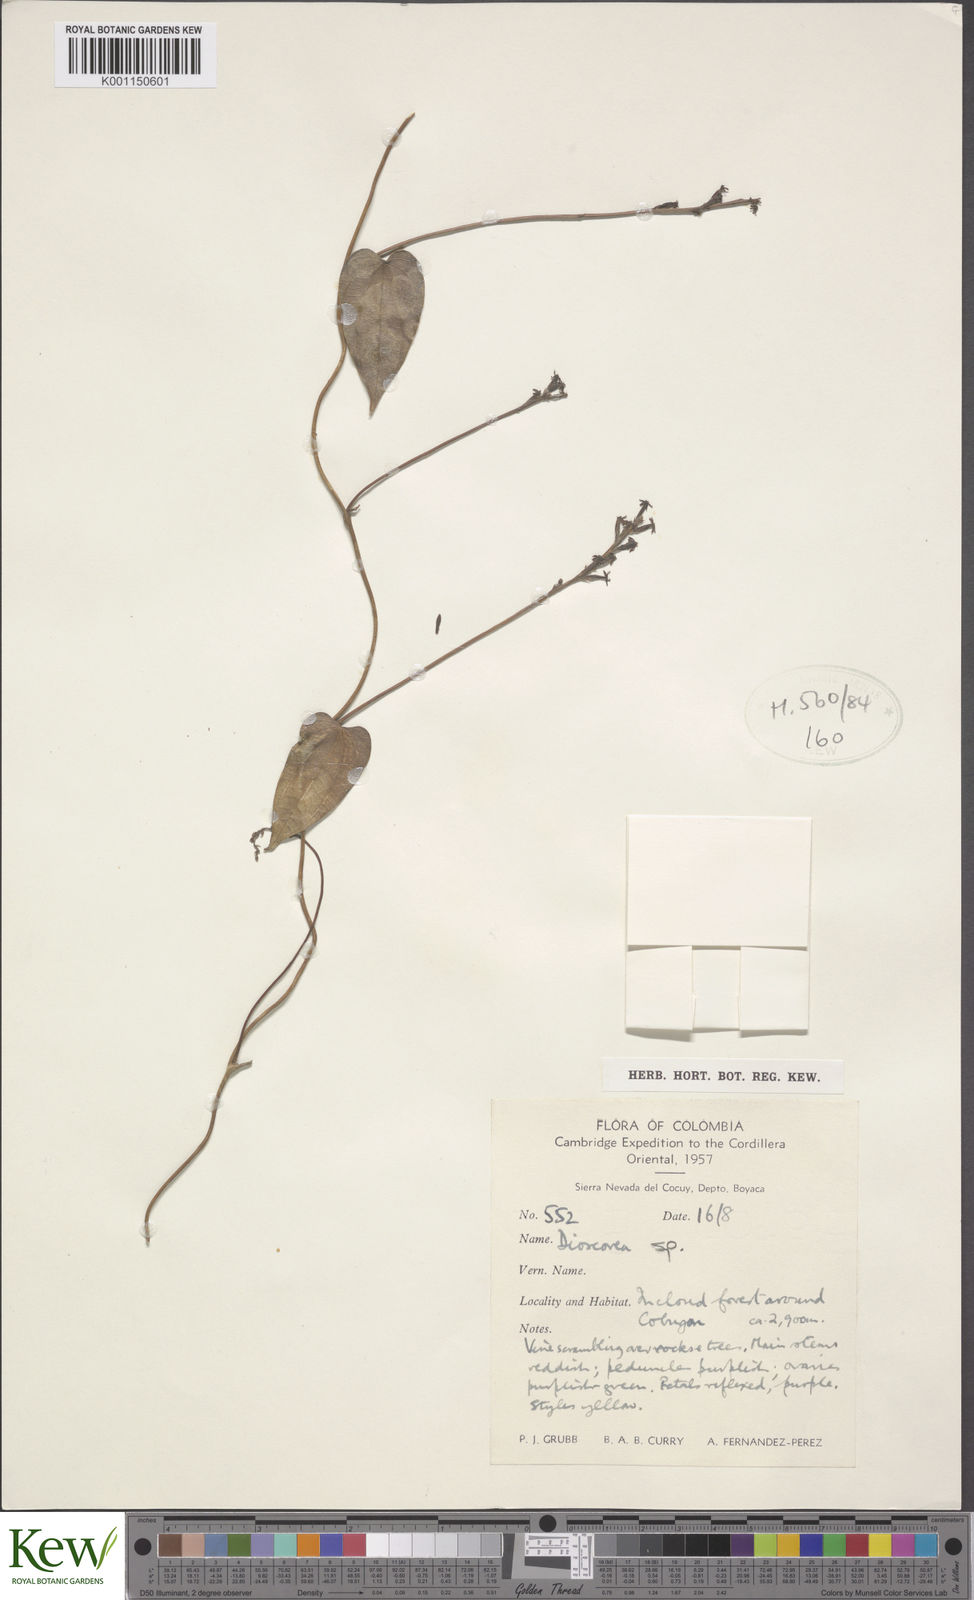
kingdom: Plantae
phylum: Tracheophyta
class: Liliopsida
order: Dioscoreales
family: Dioscoreaceae
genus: Dioscorea
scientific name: Dioscorea
